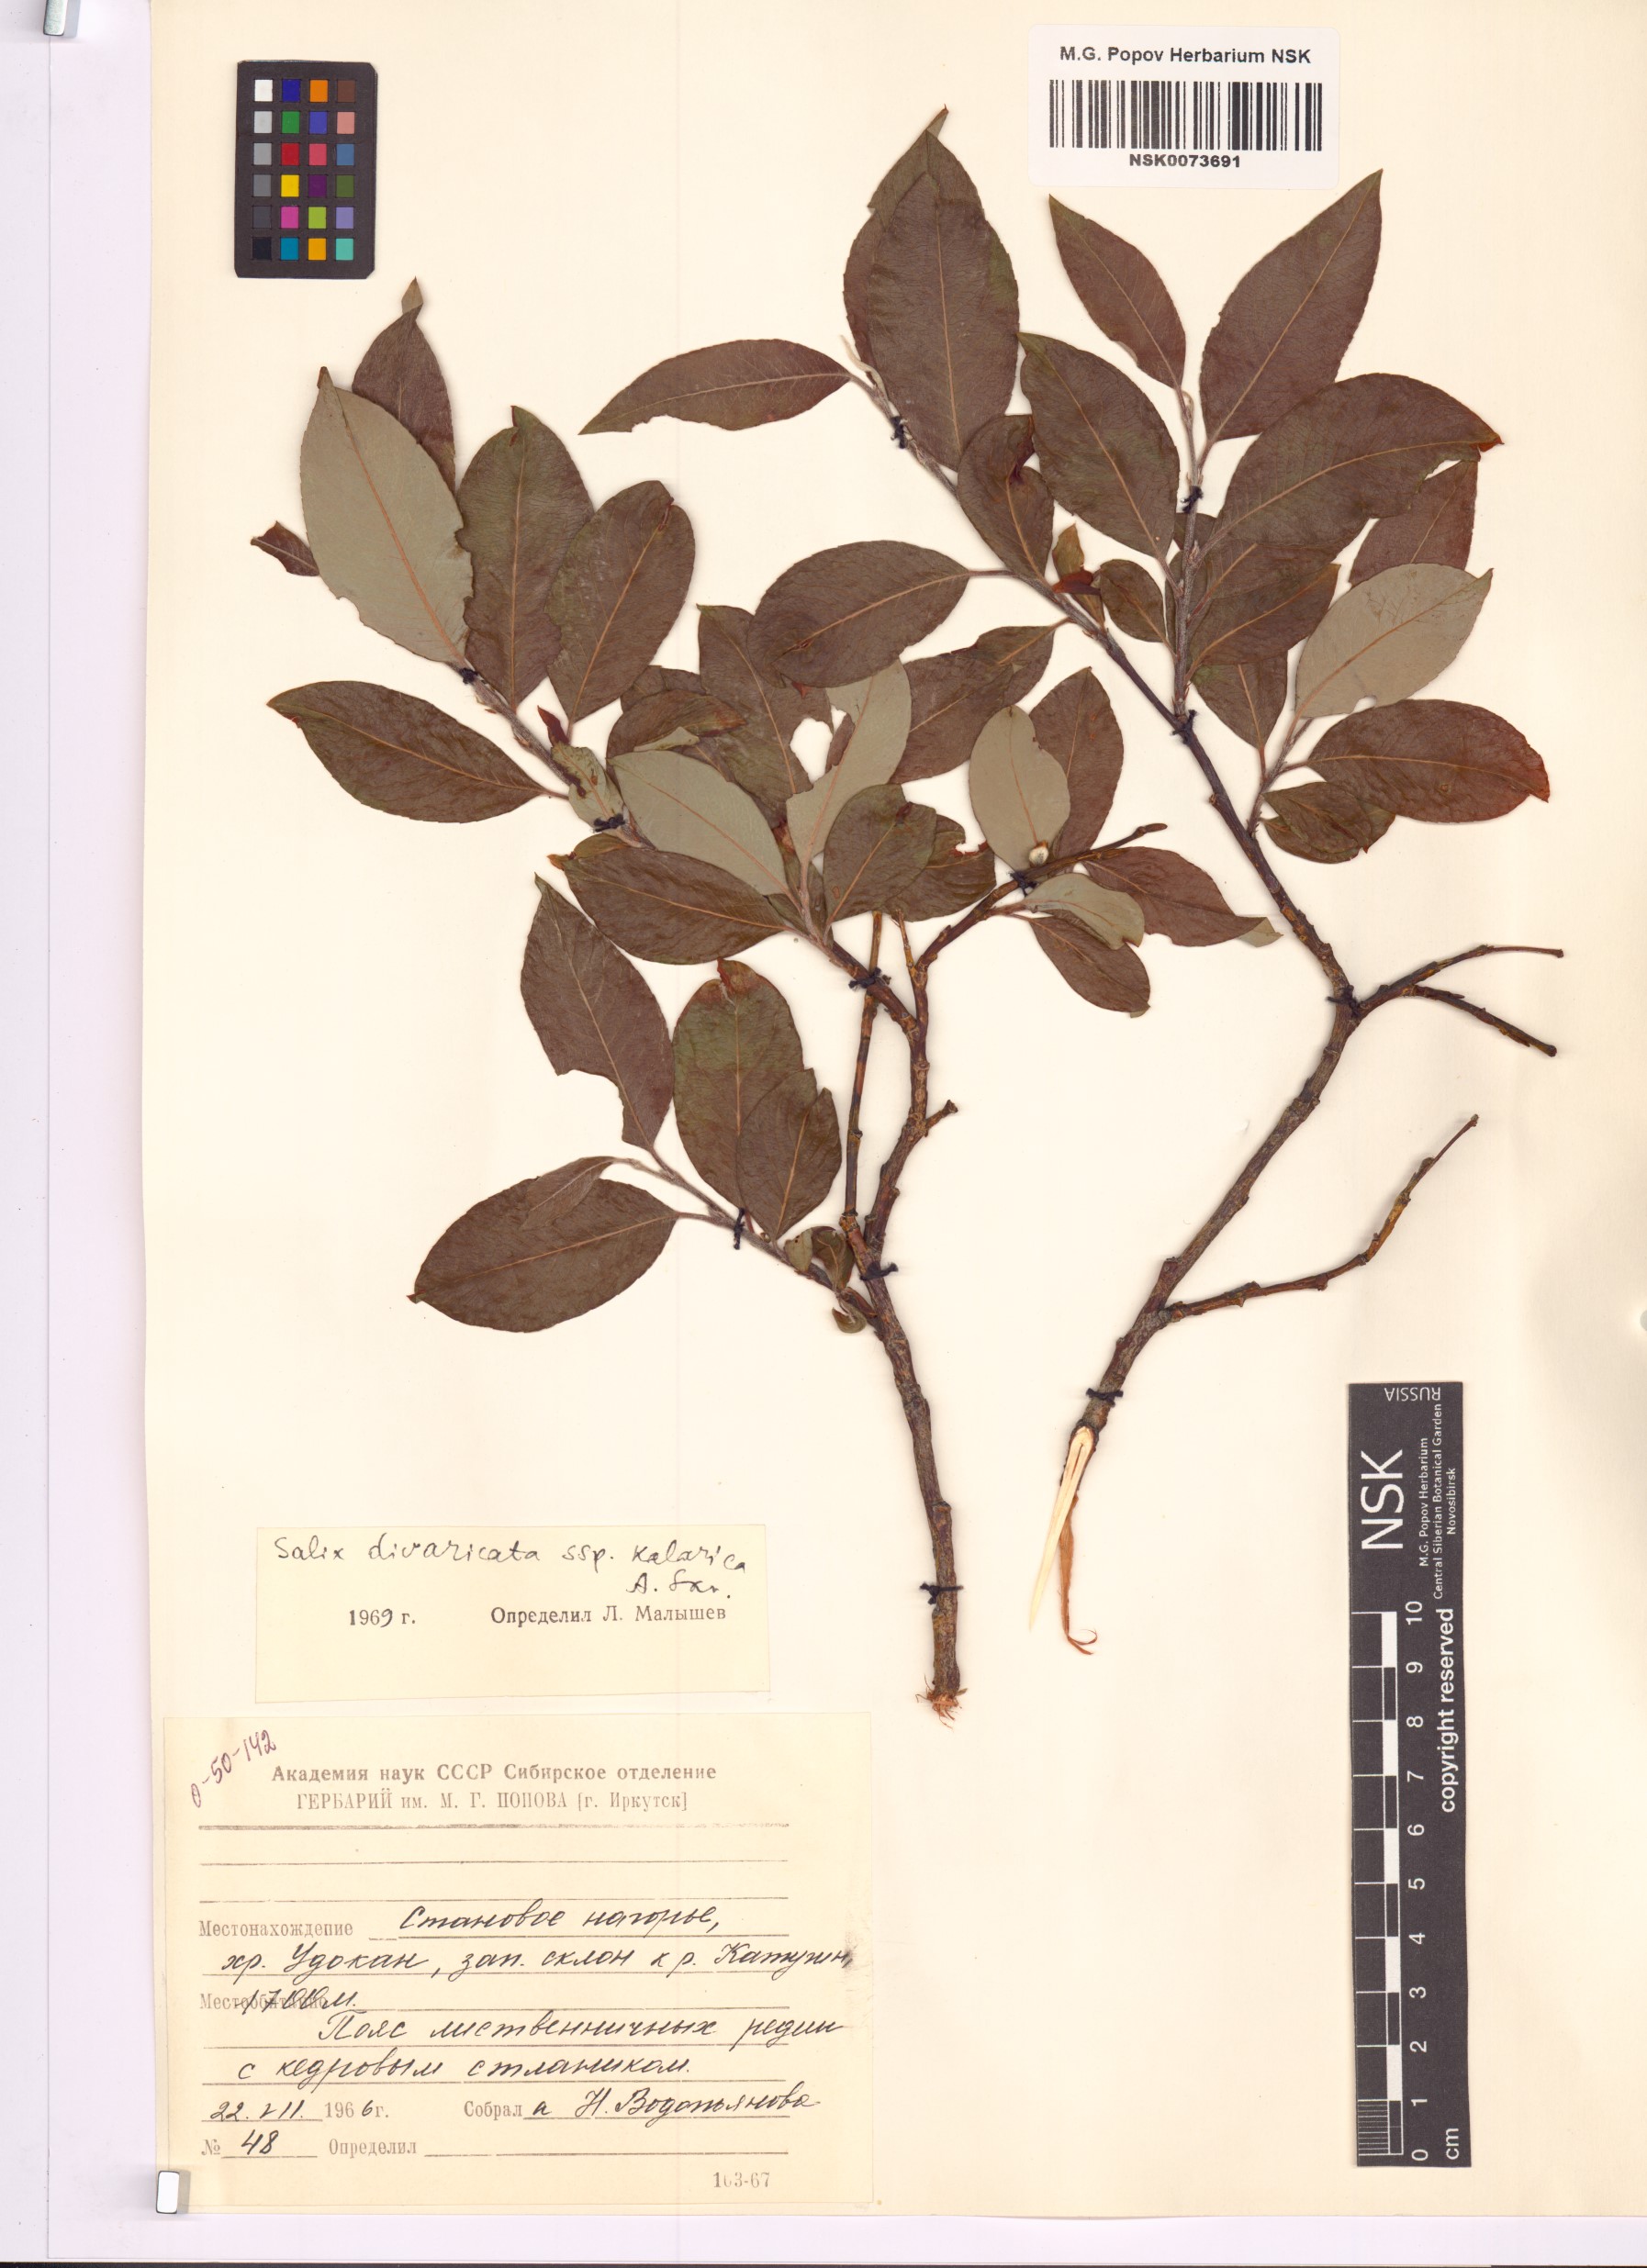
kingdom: Plantae
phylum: Tracheophyta
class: Magnoliopsida
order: Malpighiales
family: Salicaceae
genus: Salix
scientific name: Salix kalarica
